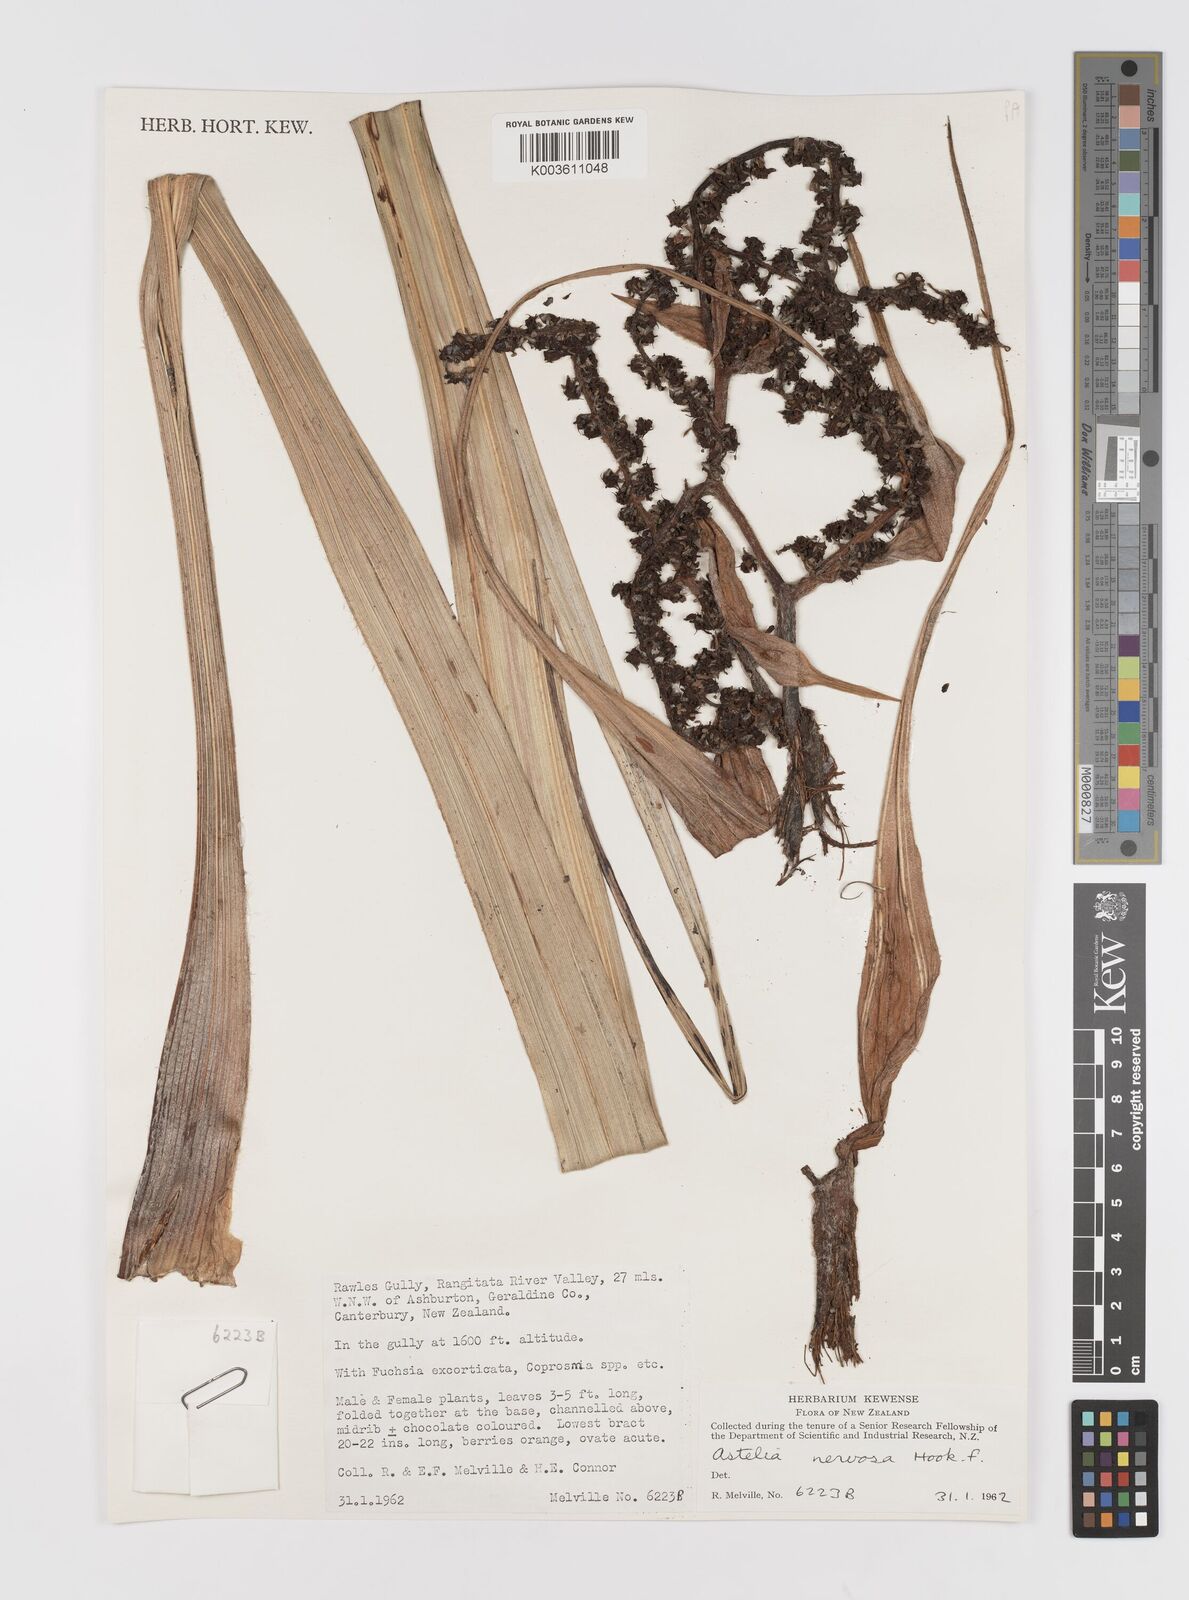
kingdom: Plantae
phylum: Tracheophyta
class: Liliopsida
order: Asparagales
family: Asteliaceae
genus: Astelia
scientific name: Astelia nervosa
